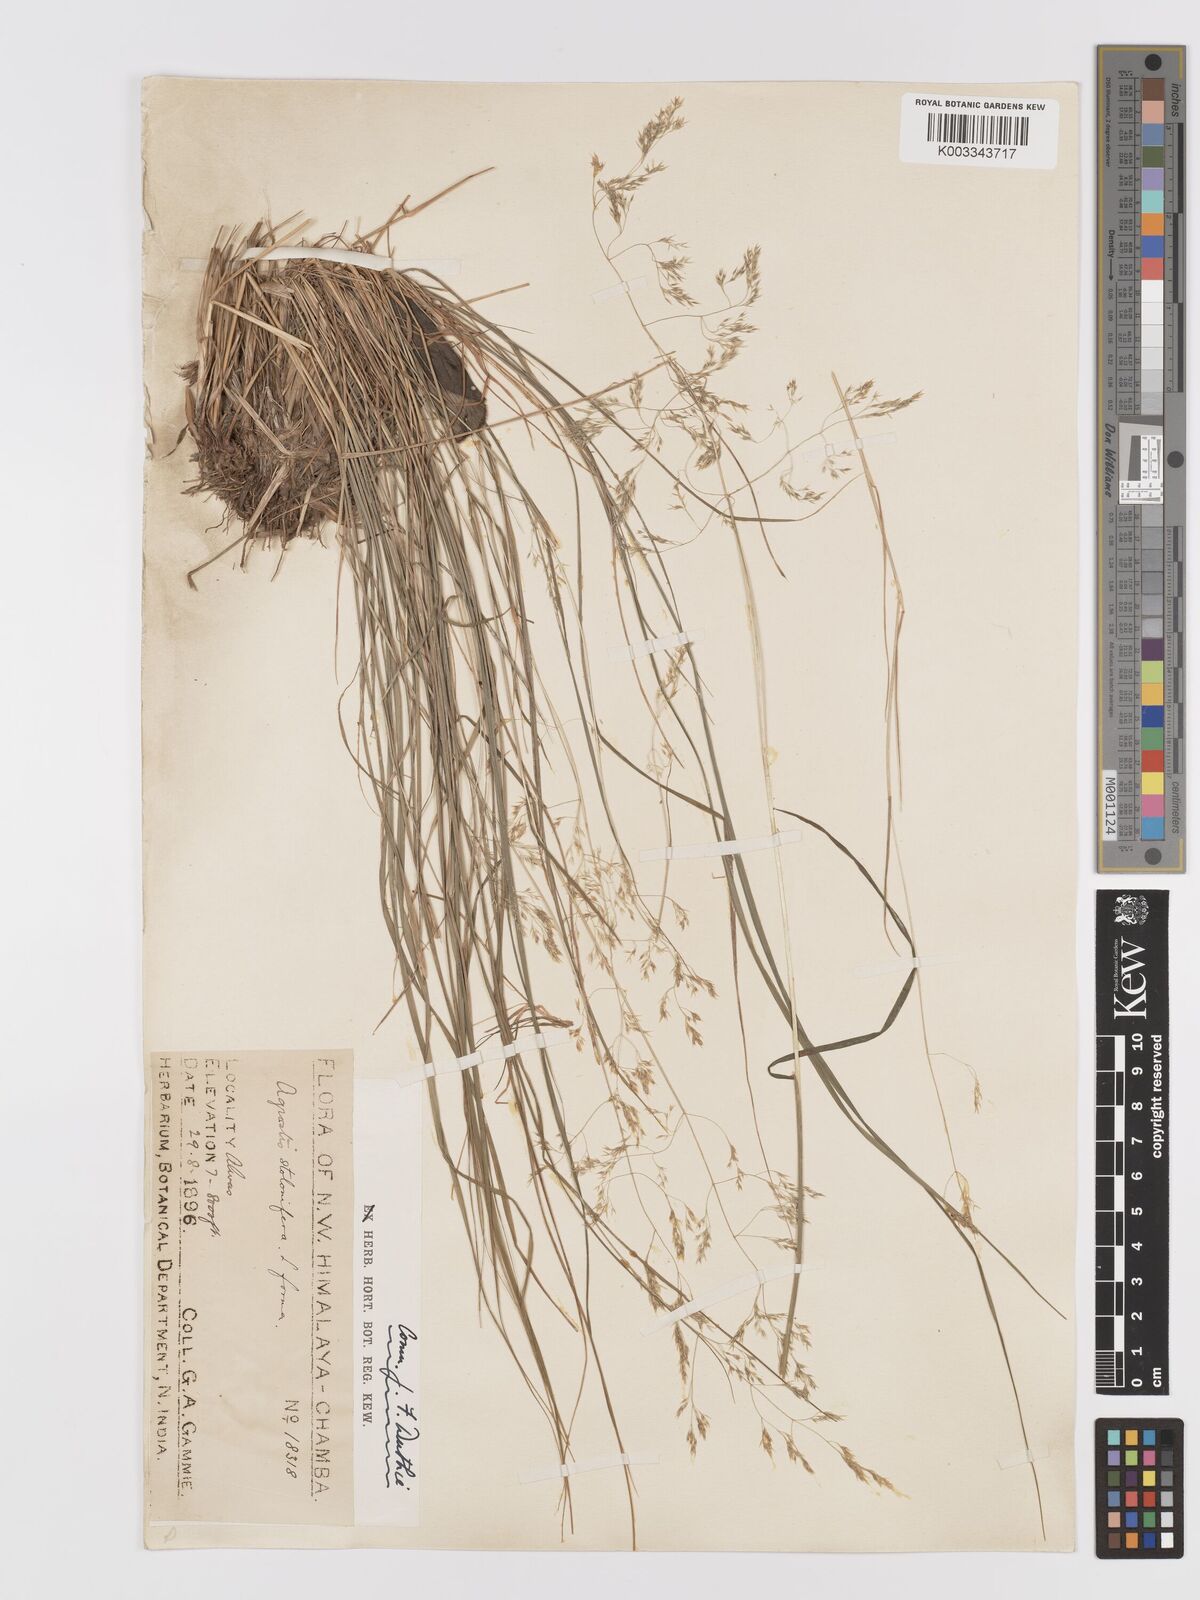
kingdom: Plantae
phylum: Tracheophyta
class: Liliopsida
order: Poales
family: Poaceae
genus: Agrostis
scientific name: Agrostis pilosula
